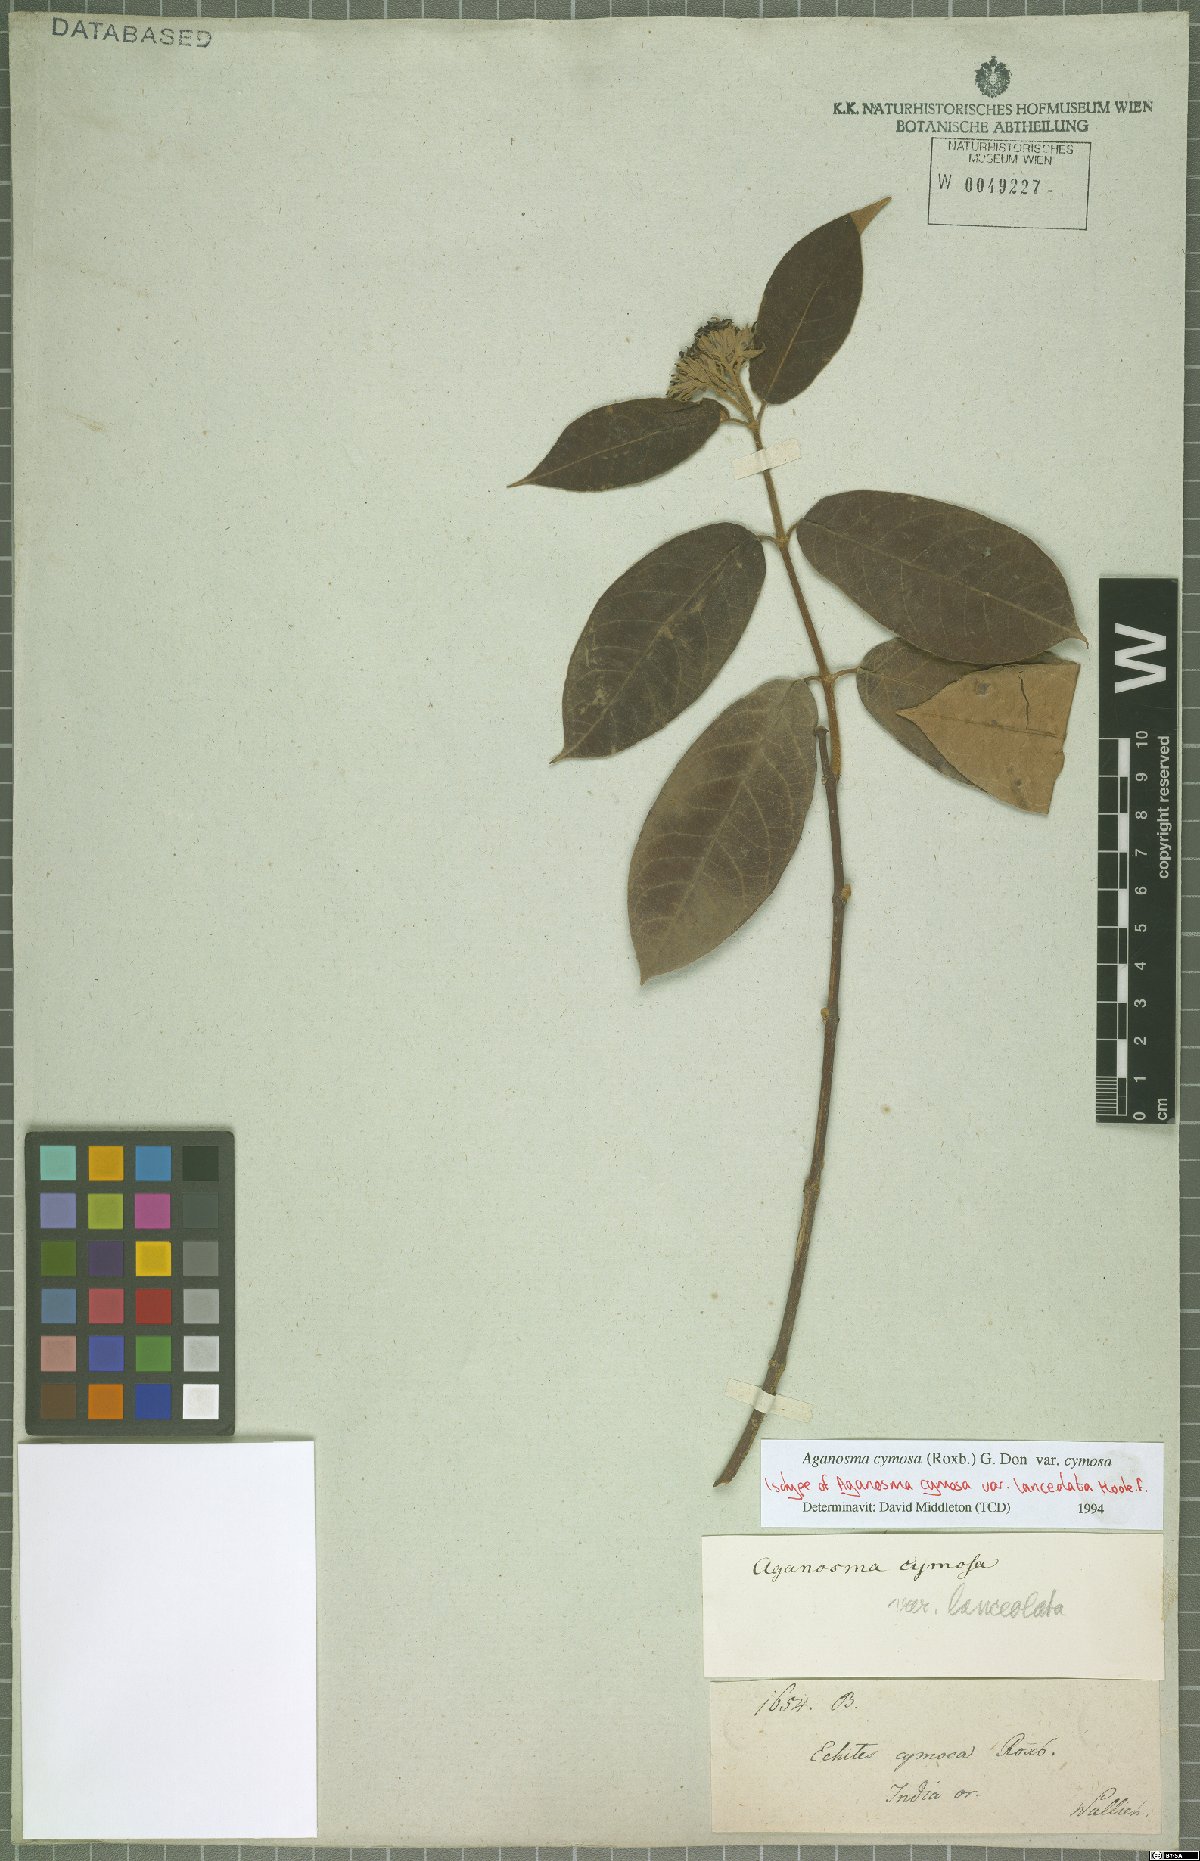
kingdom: Plantae
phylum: Tracheophyta
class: Magnoliopsida
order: Gentianales
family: Apocynaceae
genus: Aganosma
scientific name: Aganosma cymosa
